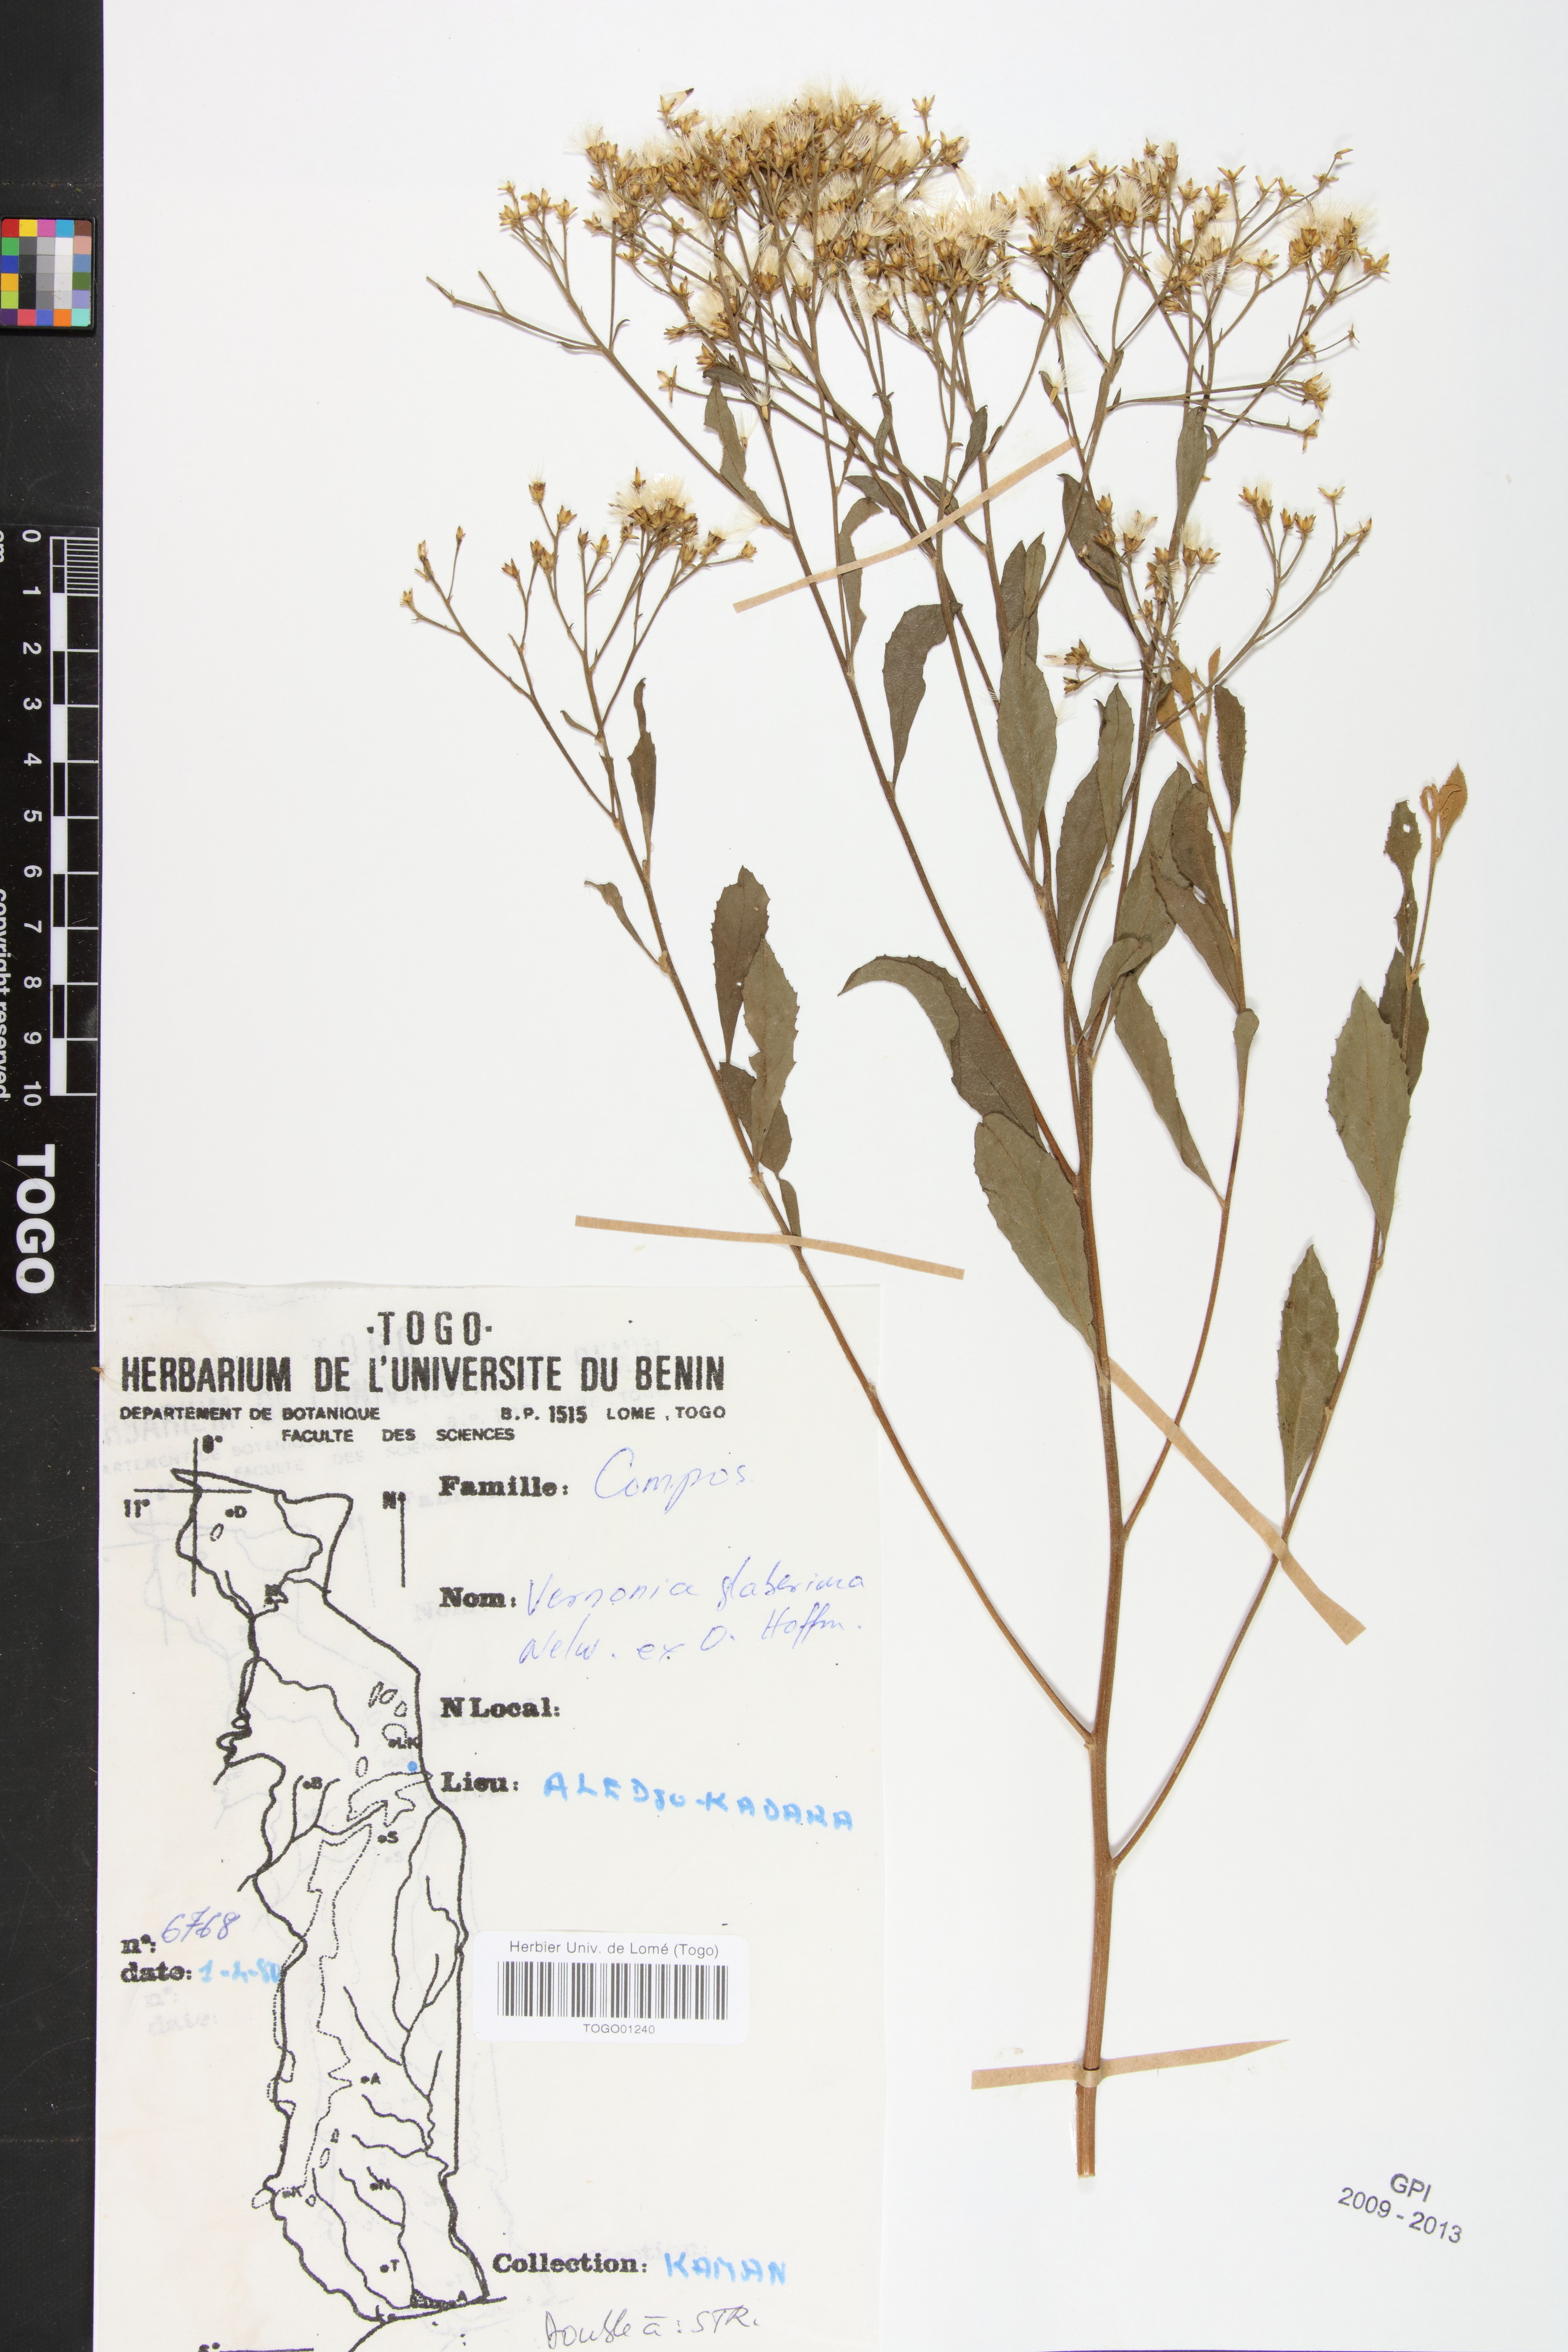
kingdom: Plantae
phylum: Tracheophyta
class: Magnoliopsida
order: Asterales
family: Asteraceae
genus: Gymnanthemum
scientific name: Gymnanthemum glaberrimum
